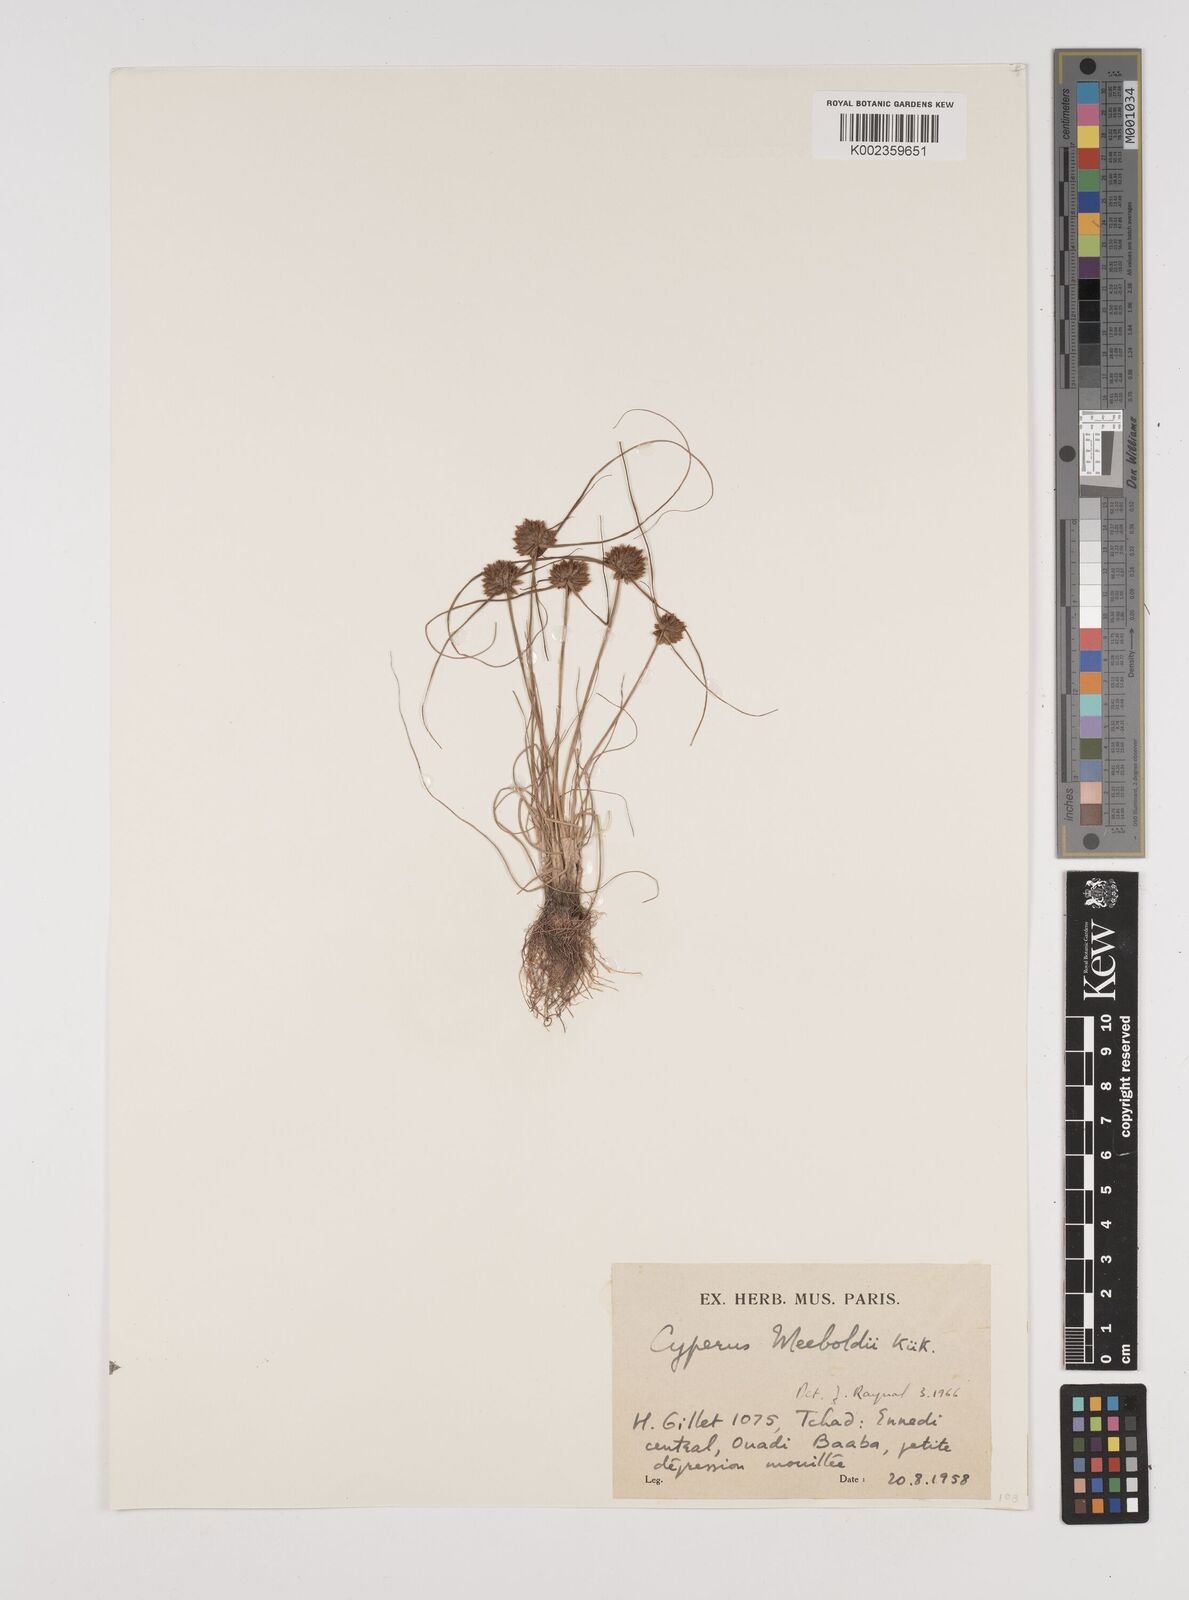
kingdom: Plantae
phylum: Tracheophyta
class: Liliopsida
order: Poales
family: Cyperaceae
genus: Cyperus
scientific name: Cyperus meeboldii
